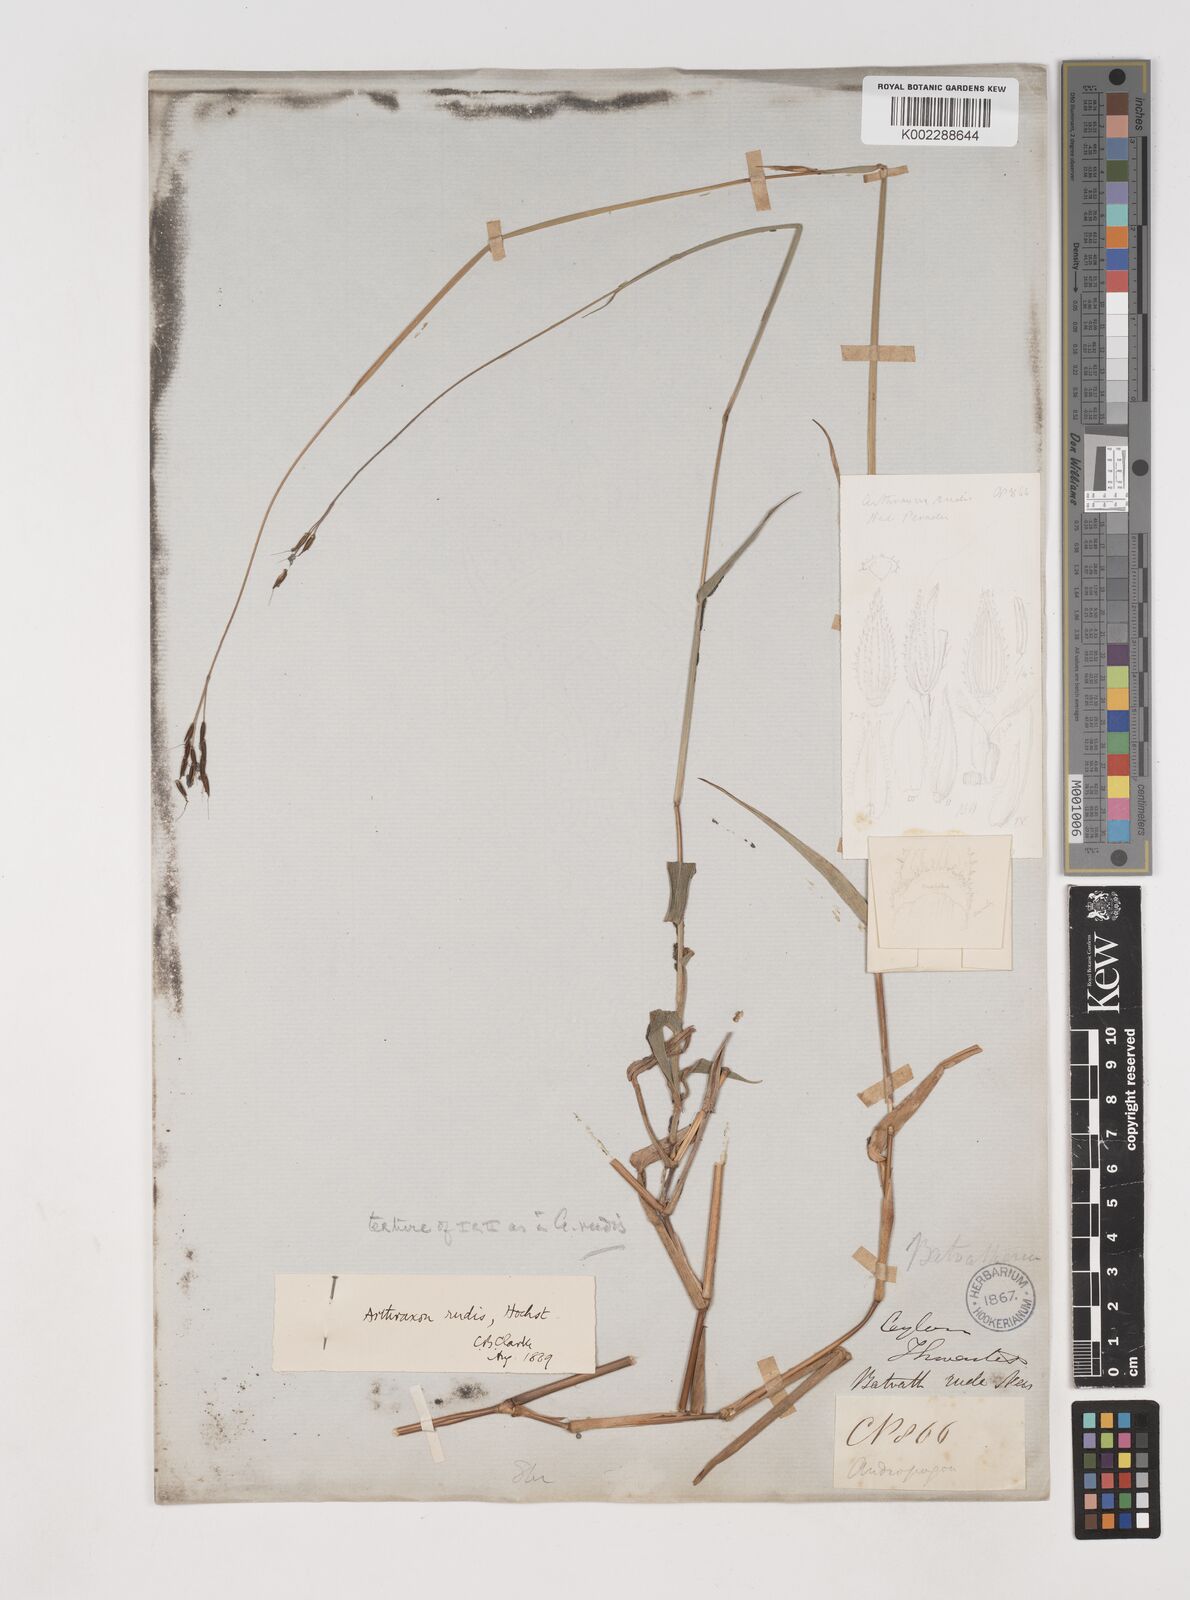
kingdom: Plantae
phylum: Tracheophyta
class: Liliopsida
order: Poales
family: Poaceae
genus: Arthraxon
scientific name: Arthraxon castratus
